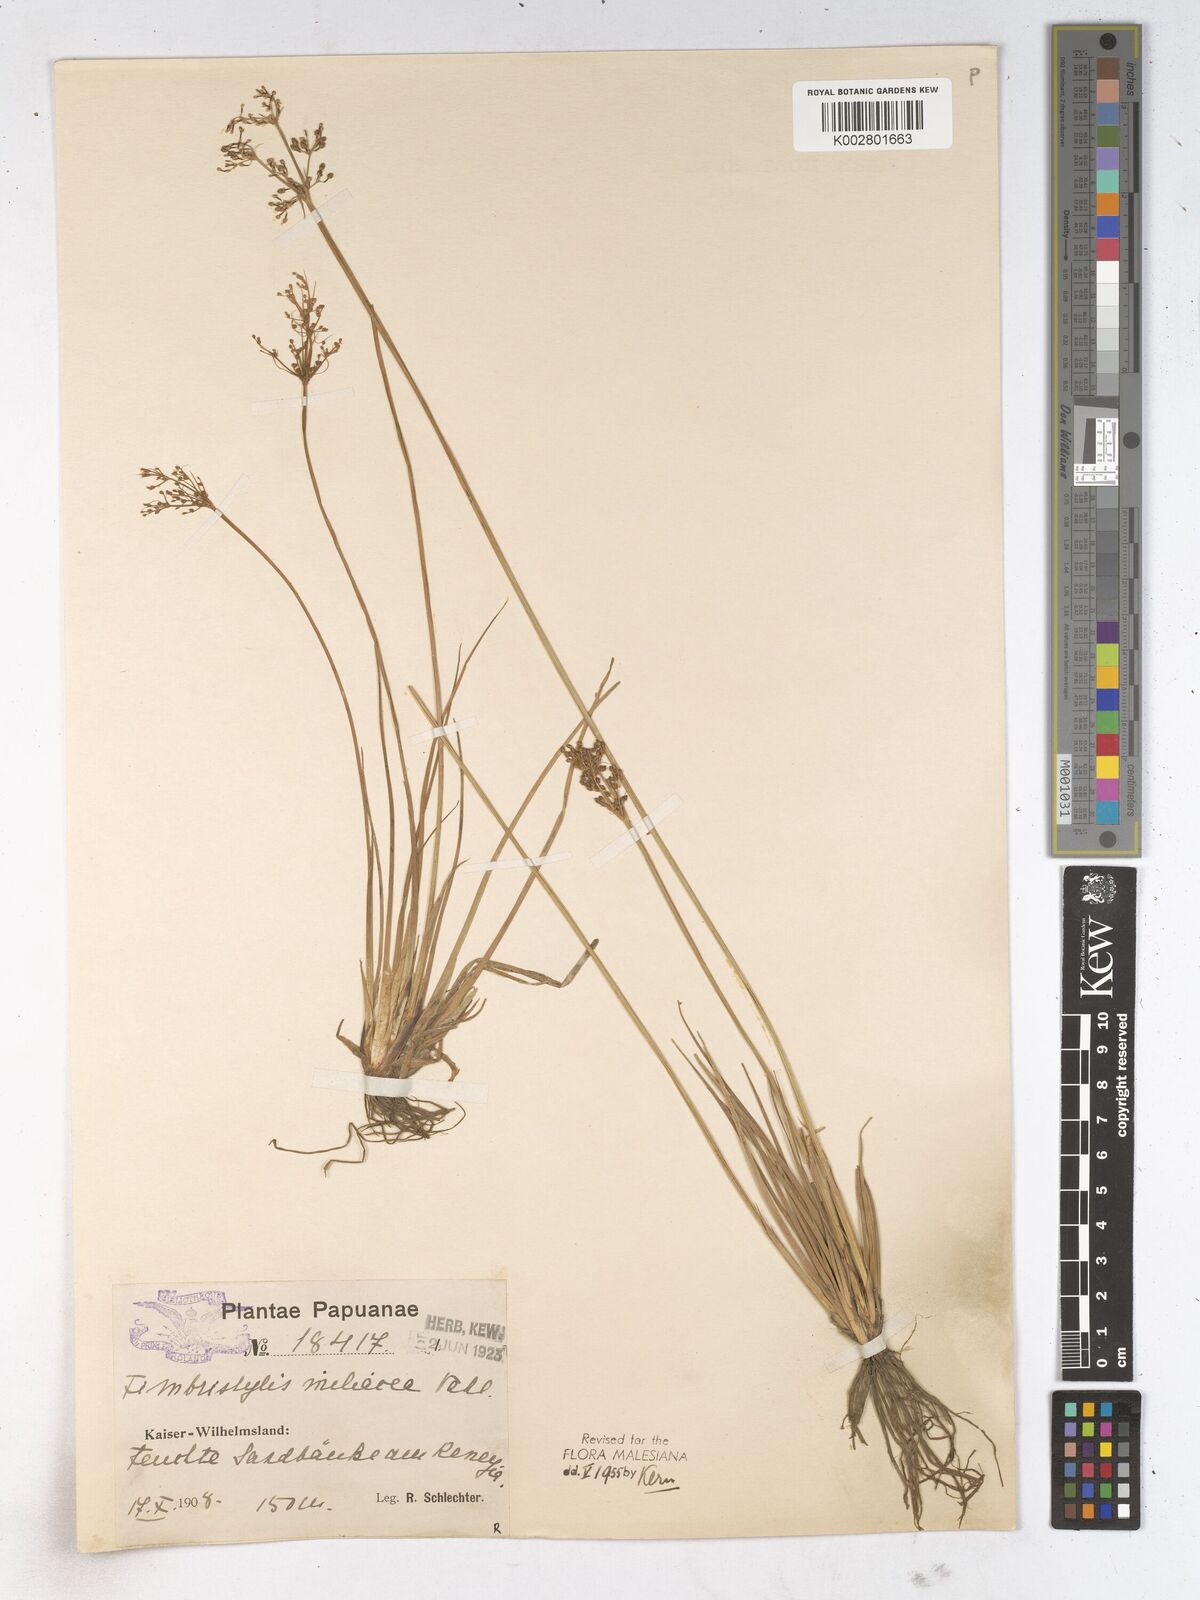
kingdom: Plantae
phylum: Tracheophyta
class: Liliopsida
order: Poales
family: Cyperaceae
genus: Fimbristylis
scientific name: Fimbristylis littoralis
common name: Fimbry
